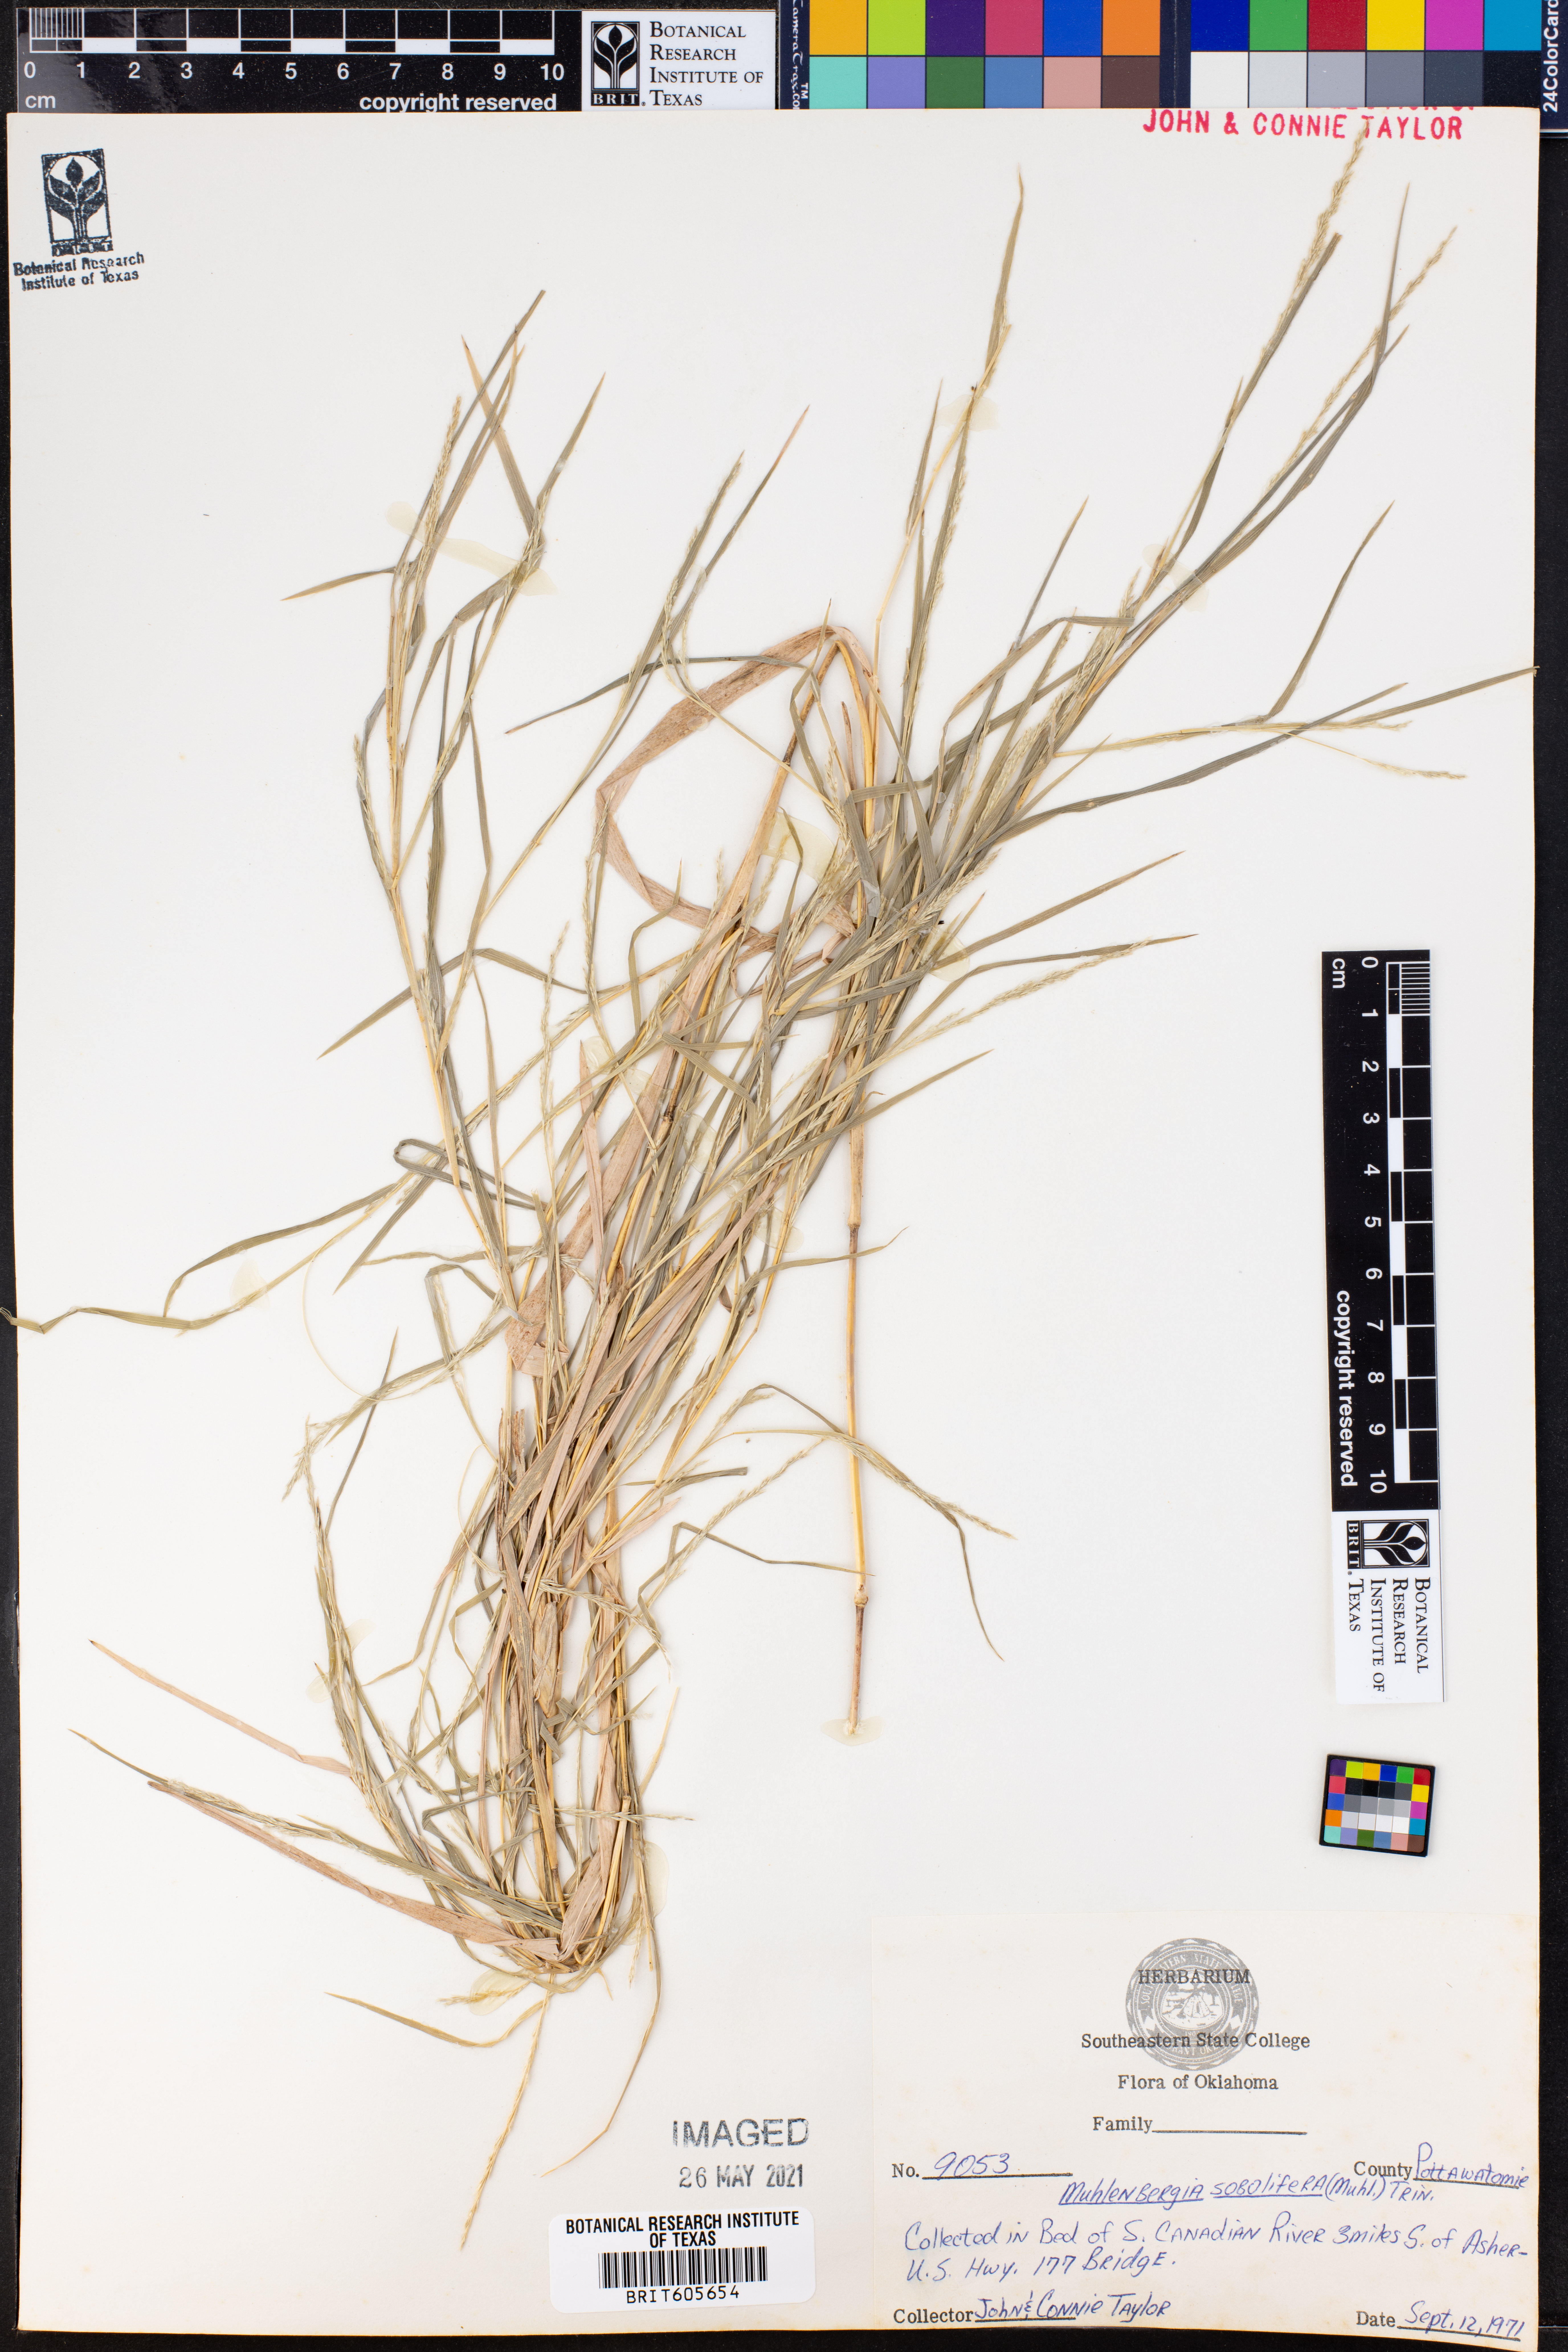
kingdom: Plantae
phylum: Tracheophyta
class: Liliopsida
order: Poales
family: Poaceae
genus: Muhlenbergia
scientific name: Muhlenbergia sobolifera
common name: Creeping muhly
